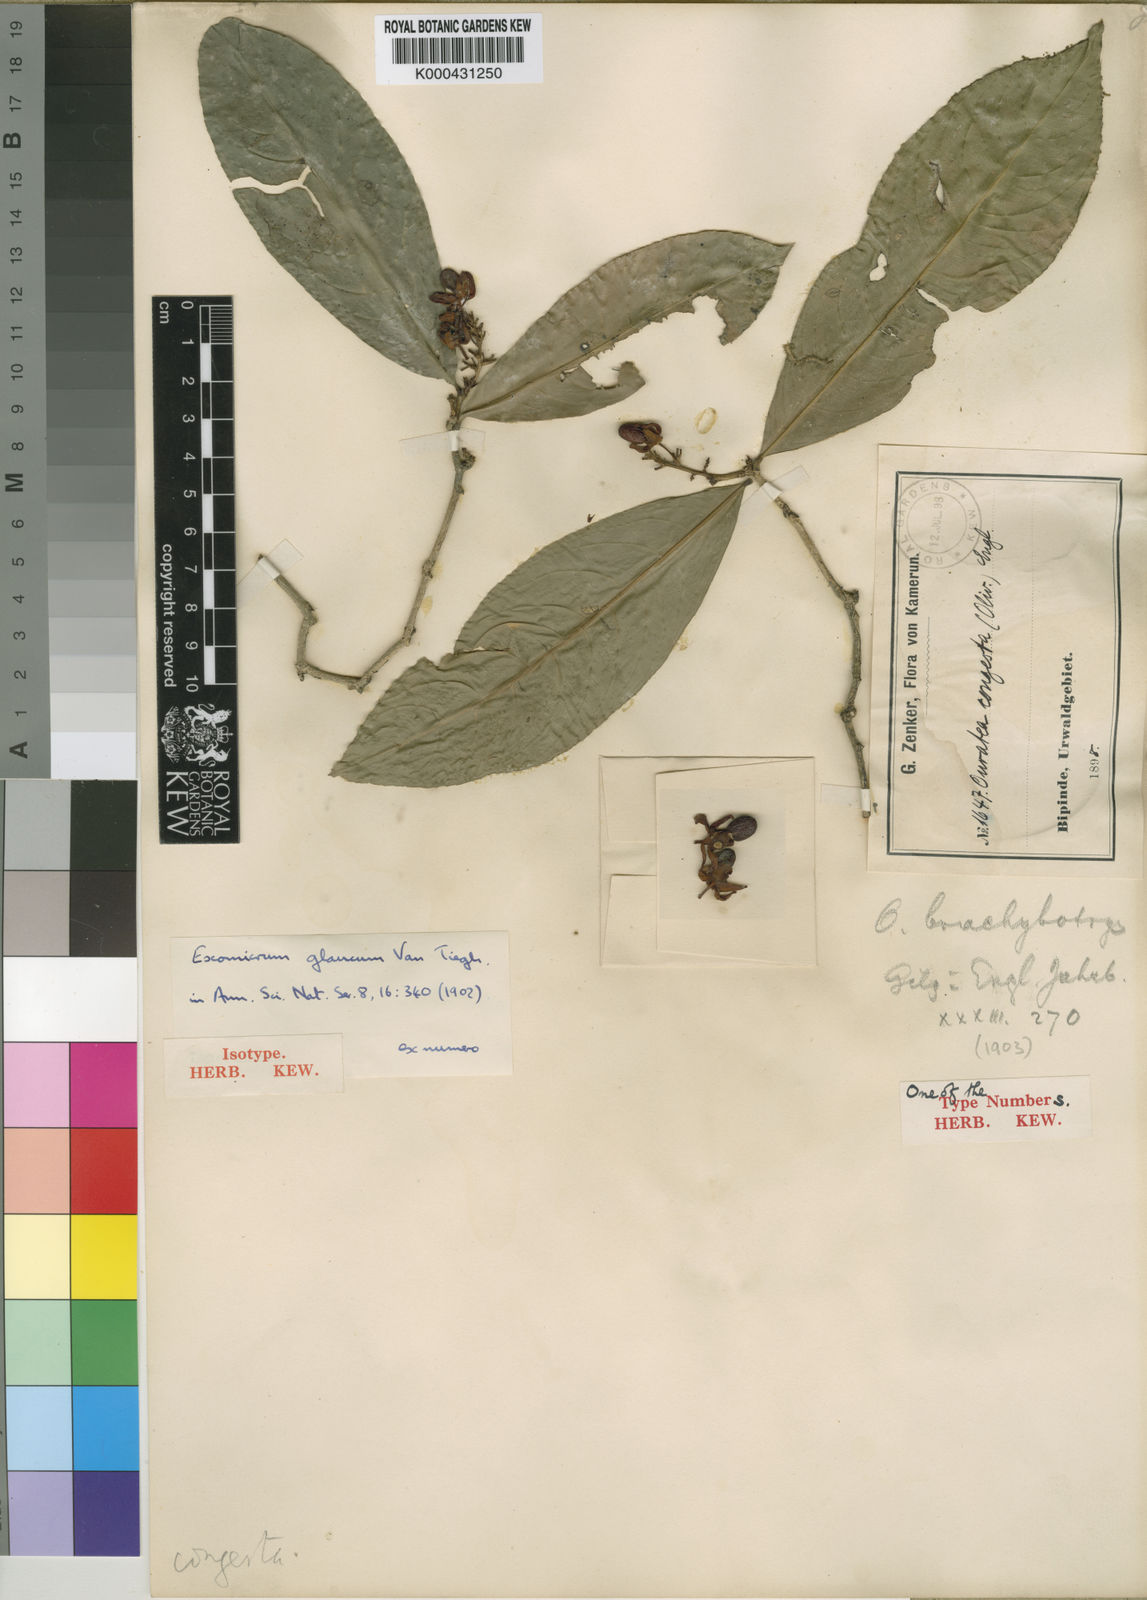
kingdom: Plantae
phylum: Tracheophyta
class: Magnoliopsida
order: Malpighiales
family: Ochnaceae
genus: Campylospermum
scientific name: Campylospermum glaucum
